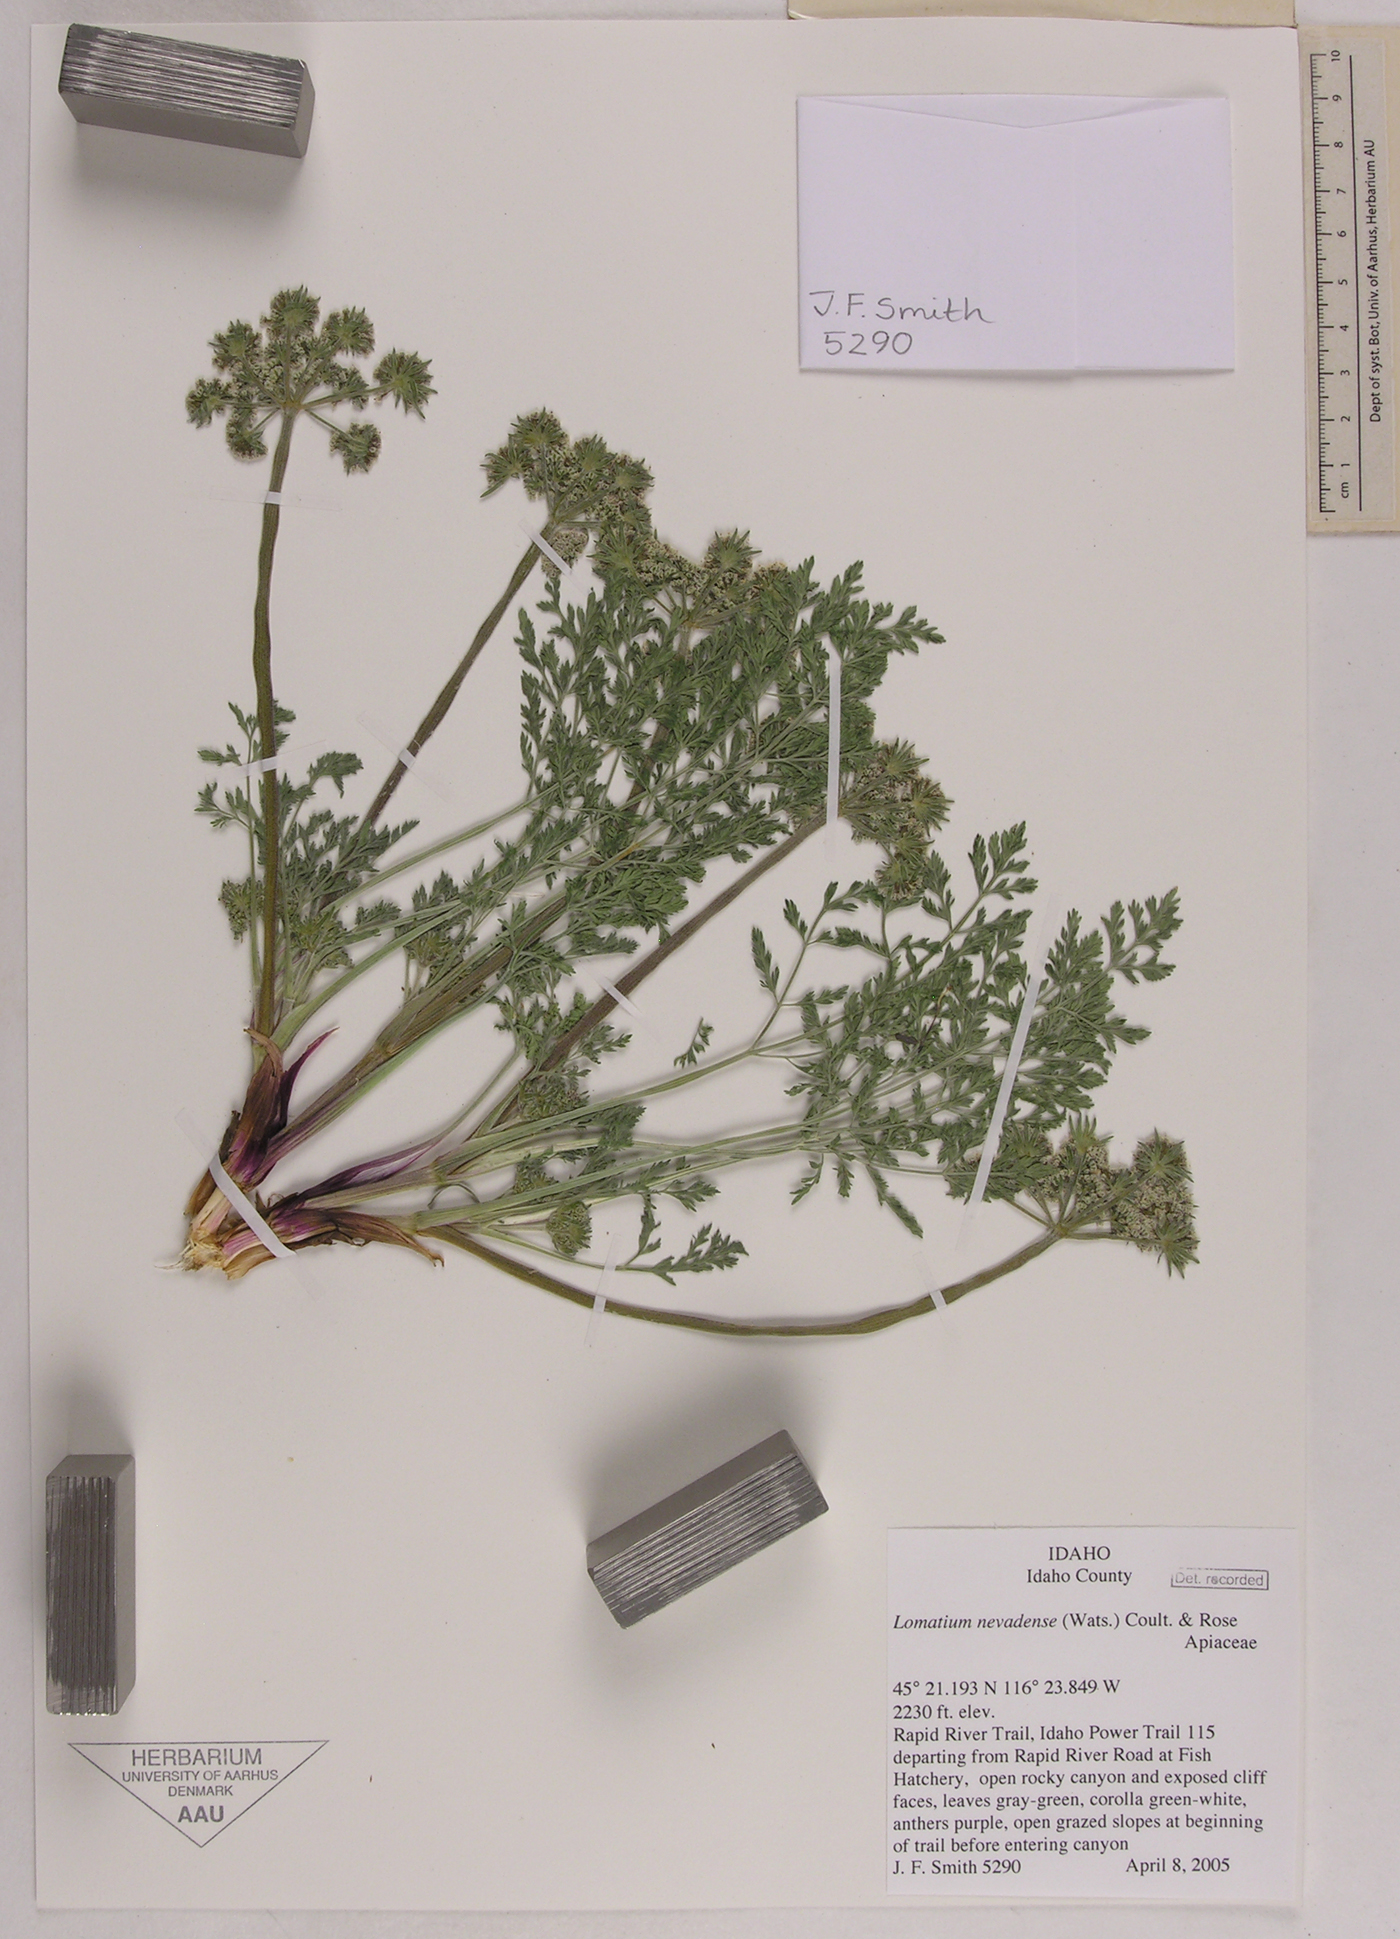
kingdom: Plantae
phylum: Tracheophyta
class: Magnoliopsida
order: Apiales
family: Apiaceae
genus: Lomatium
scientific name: Lomatium nevadense
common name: Nevada lomatium
